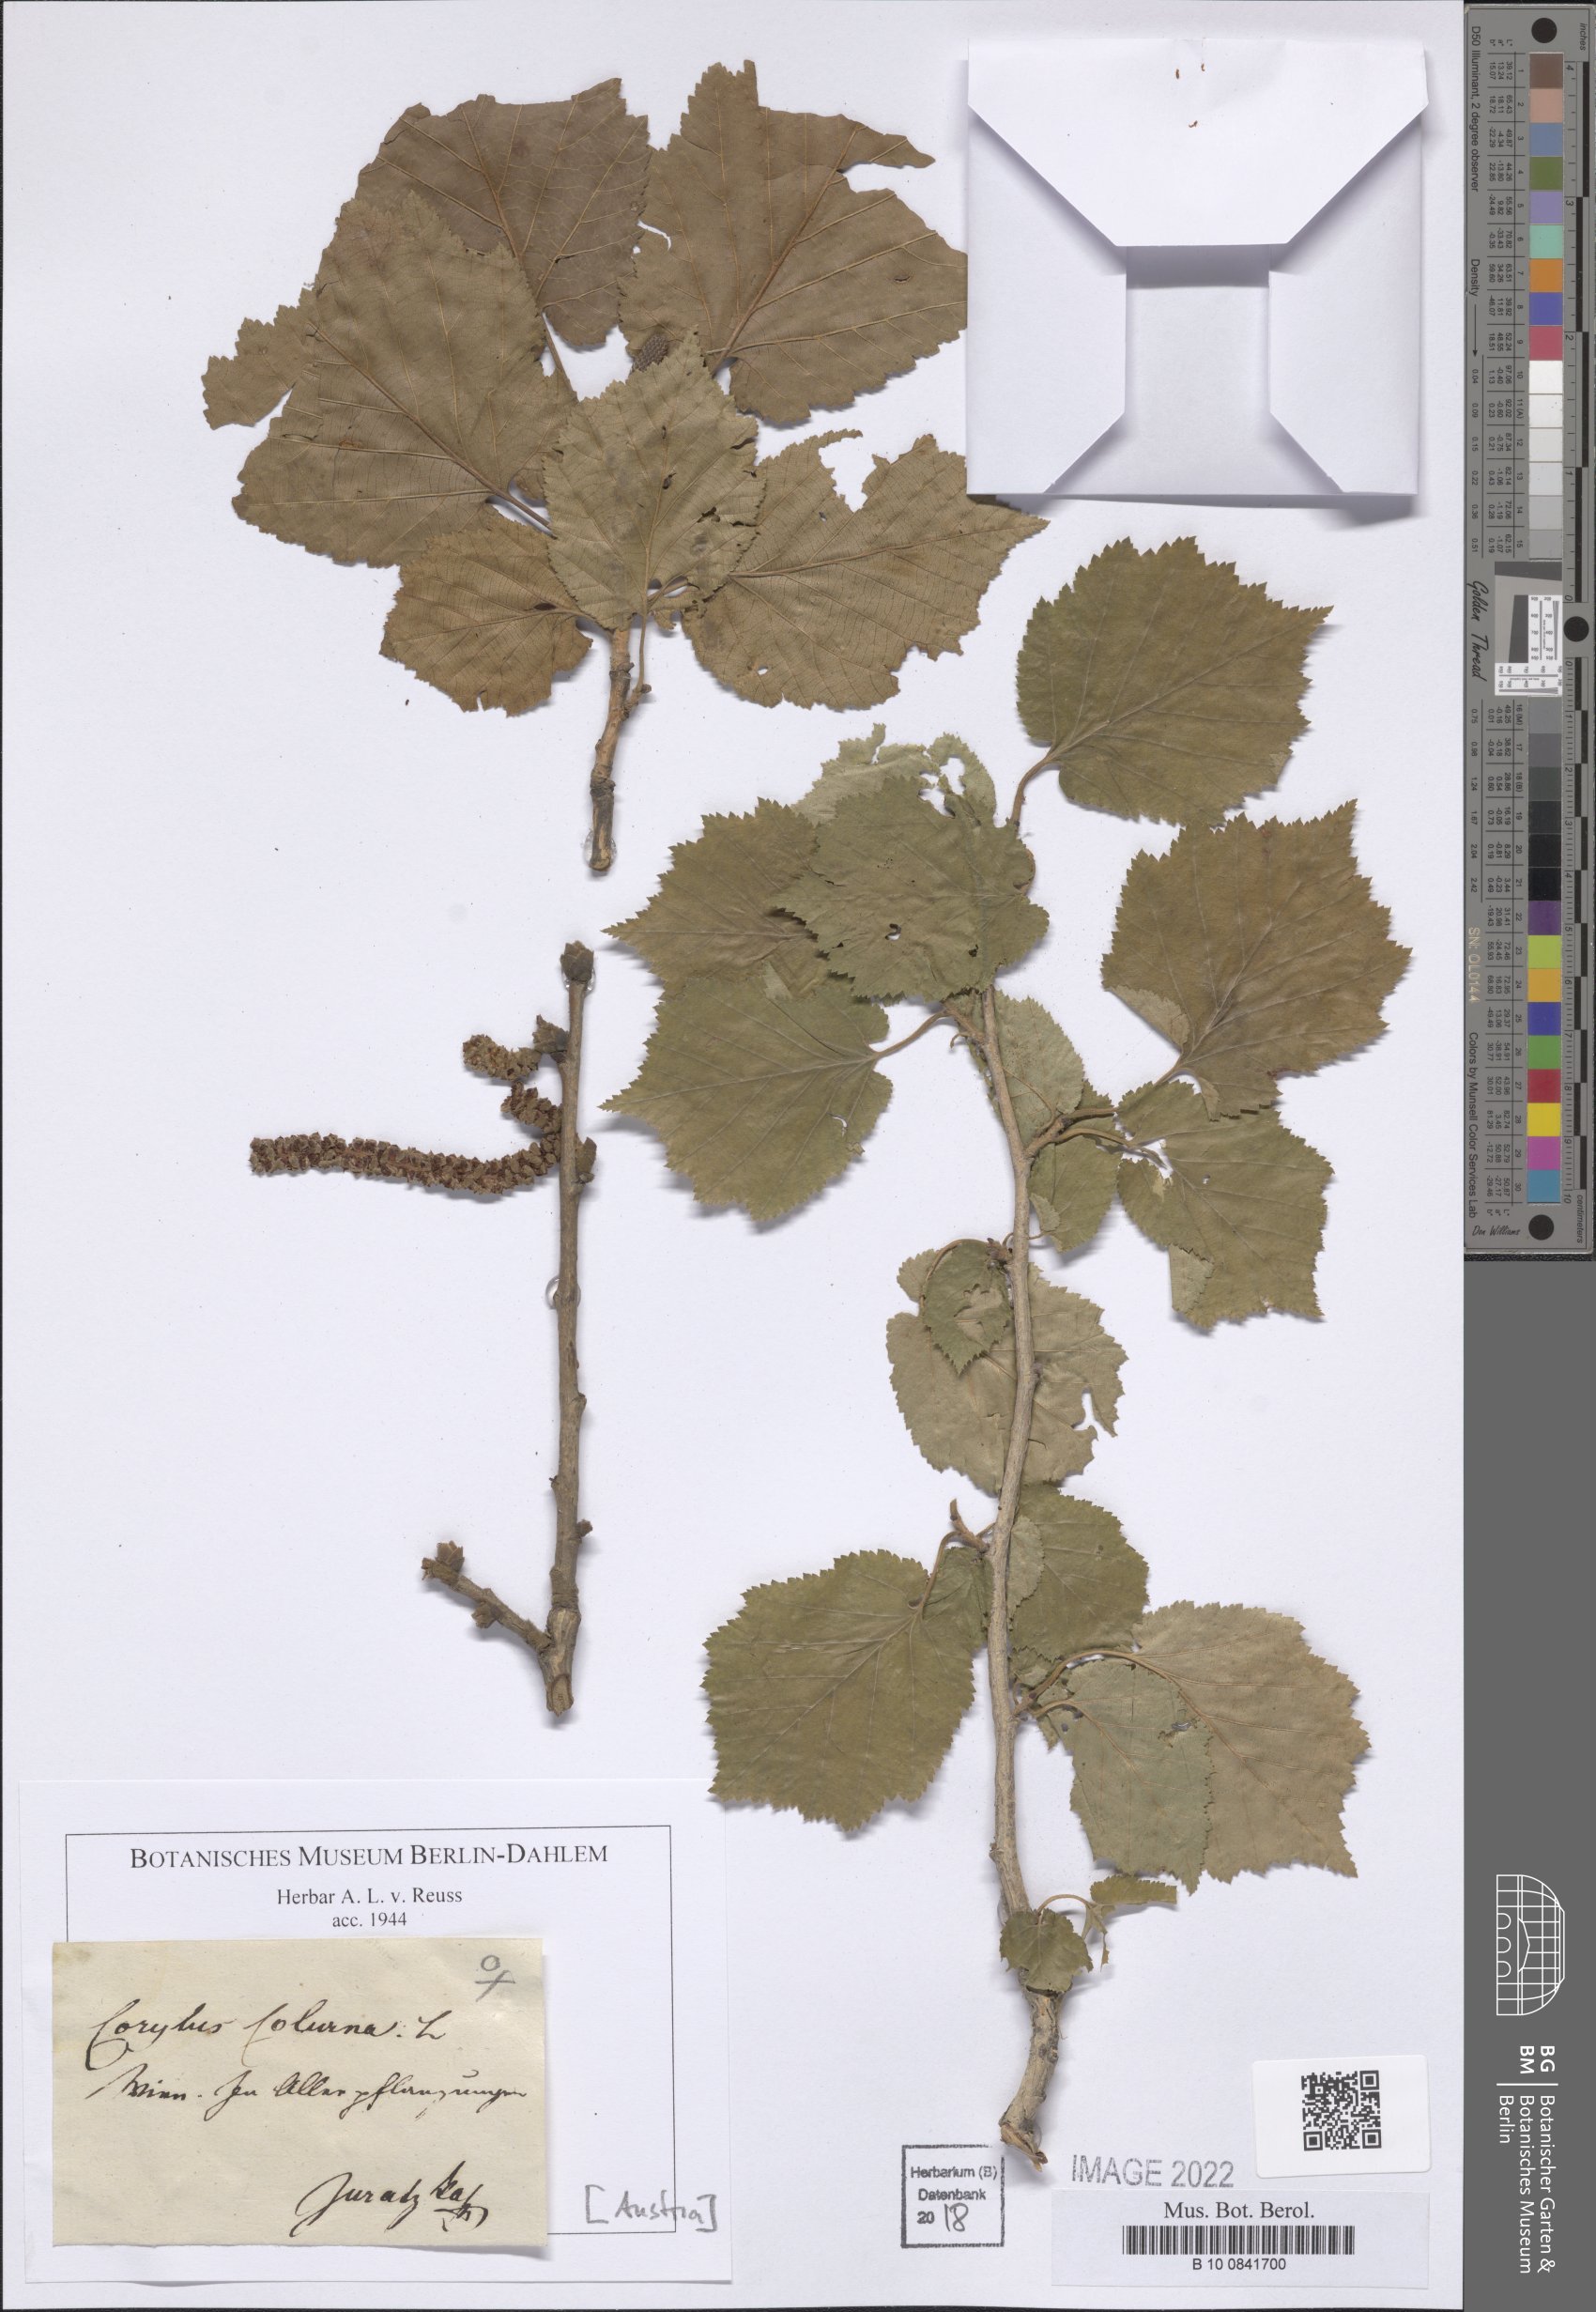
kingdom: Plantae
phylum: Tracheophyta
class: Magnoliopsida
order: Fagales
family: Betulaceae
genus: Corylus
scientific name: Corylus colurna
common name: Turkish hazel
